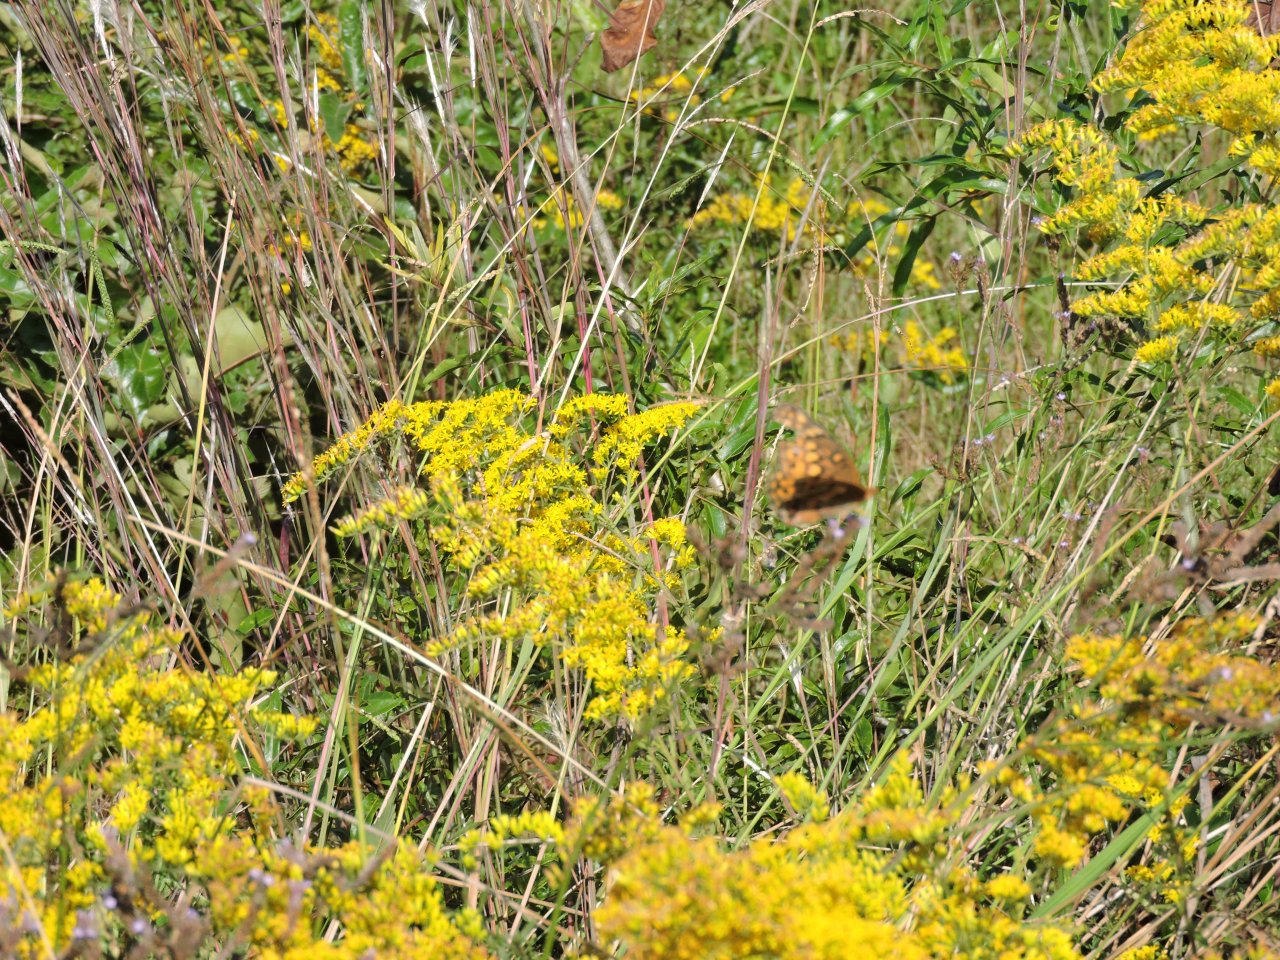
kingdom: Animalia
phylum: Arthropoda
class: Insecta
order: Lepidoptera
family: Nymphalidae
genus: Euptoieta
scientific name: Euptoieta claudia
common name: Variegated Fritillary
